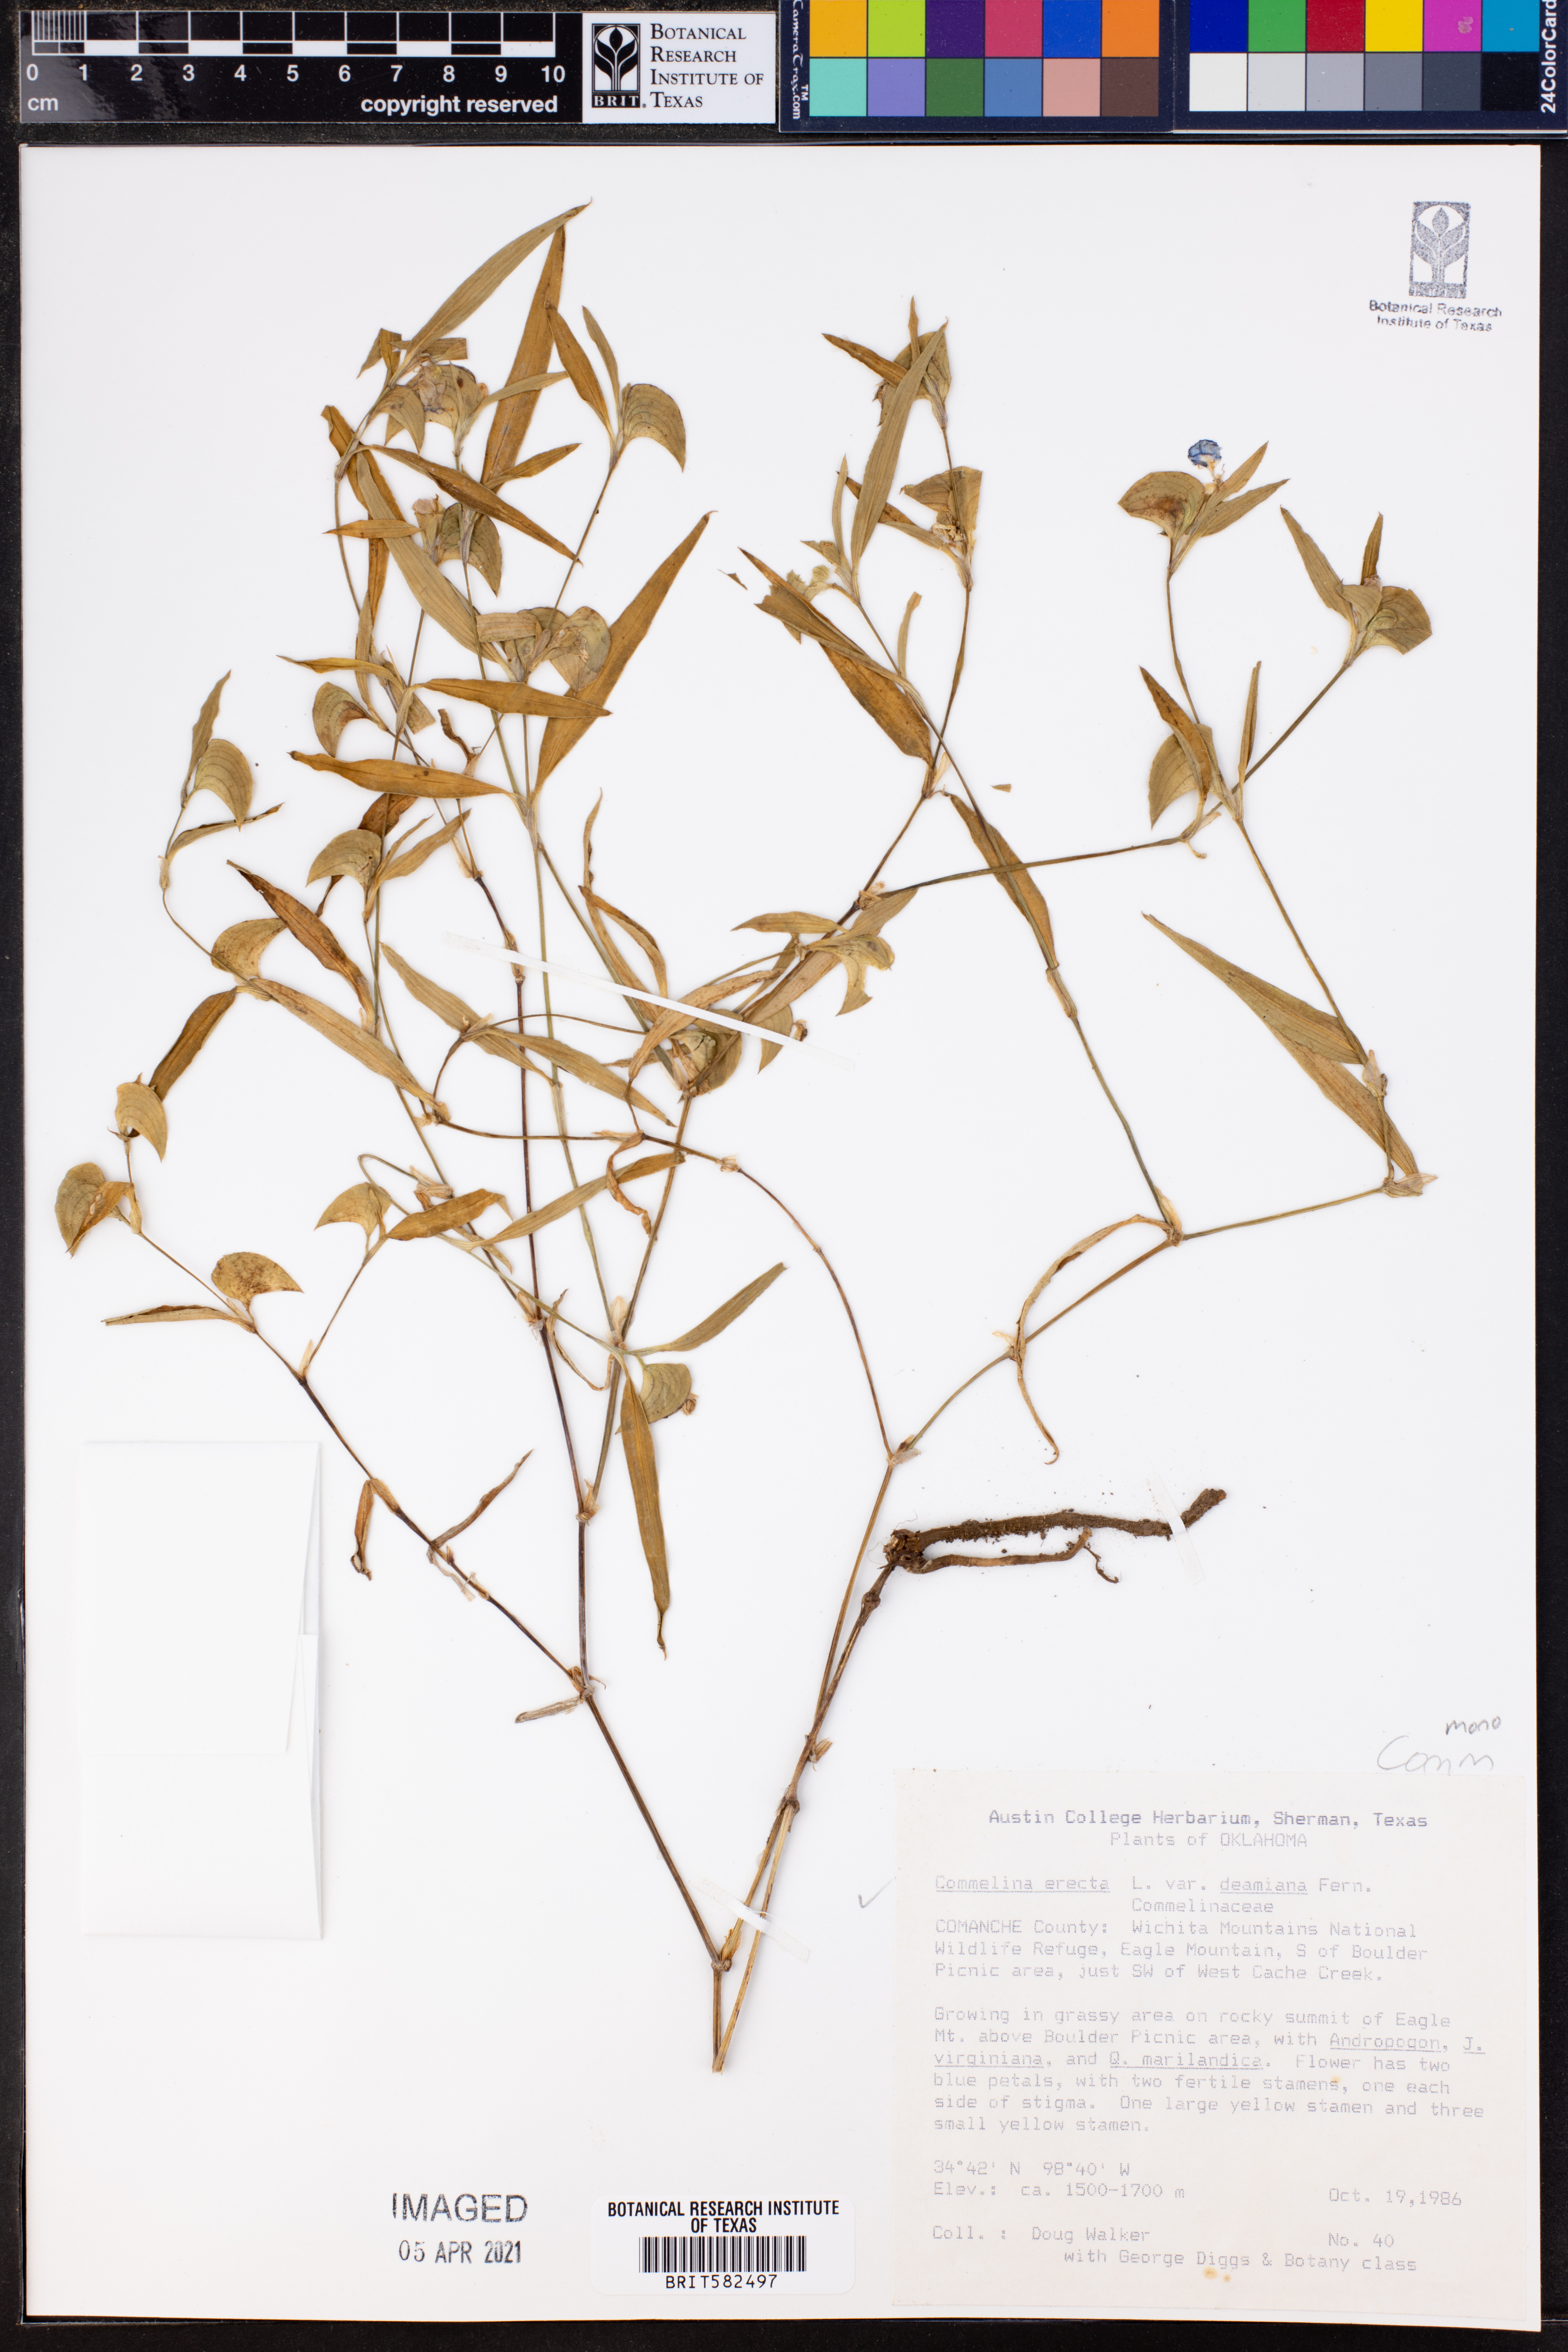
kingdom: Plantae
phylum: Tracheophyta
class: Liliopsida
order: Commelinales
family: Commelinaceae
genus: Commelina
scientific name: Commelina erecta
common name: Blousel blommetjie
